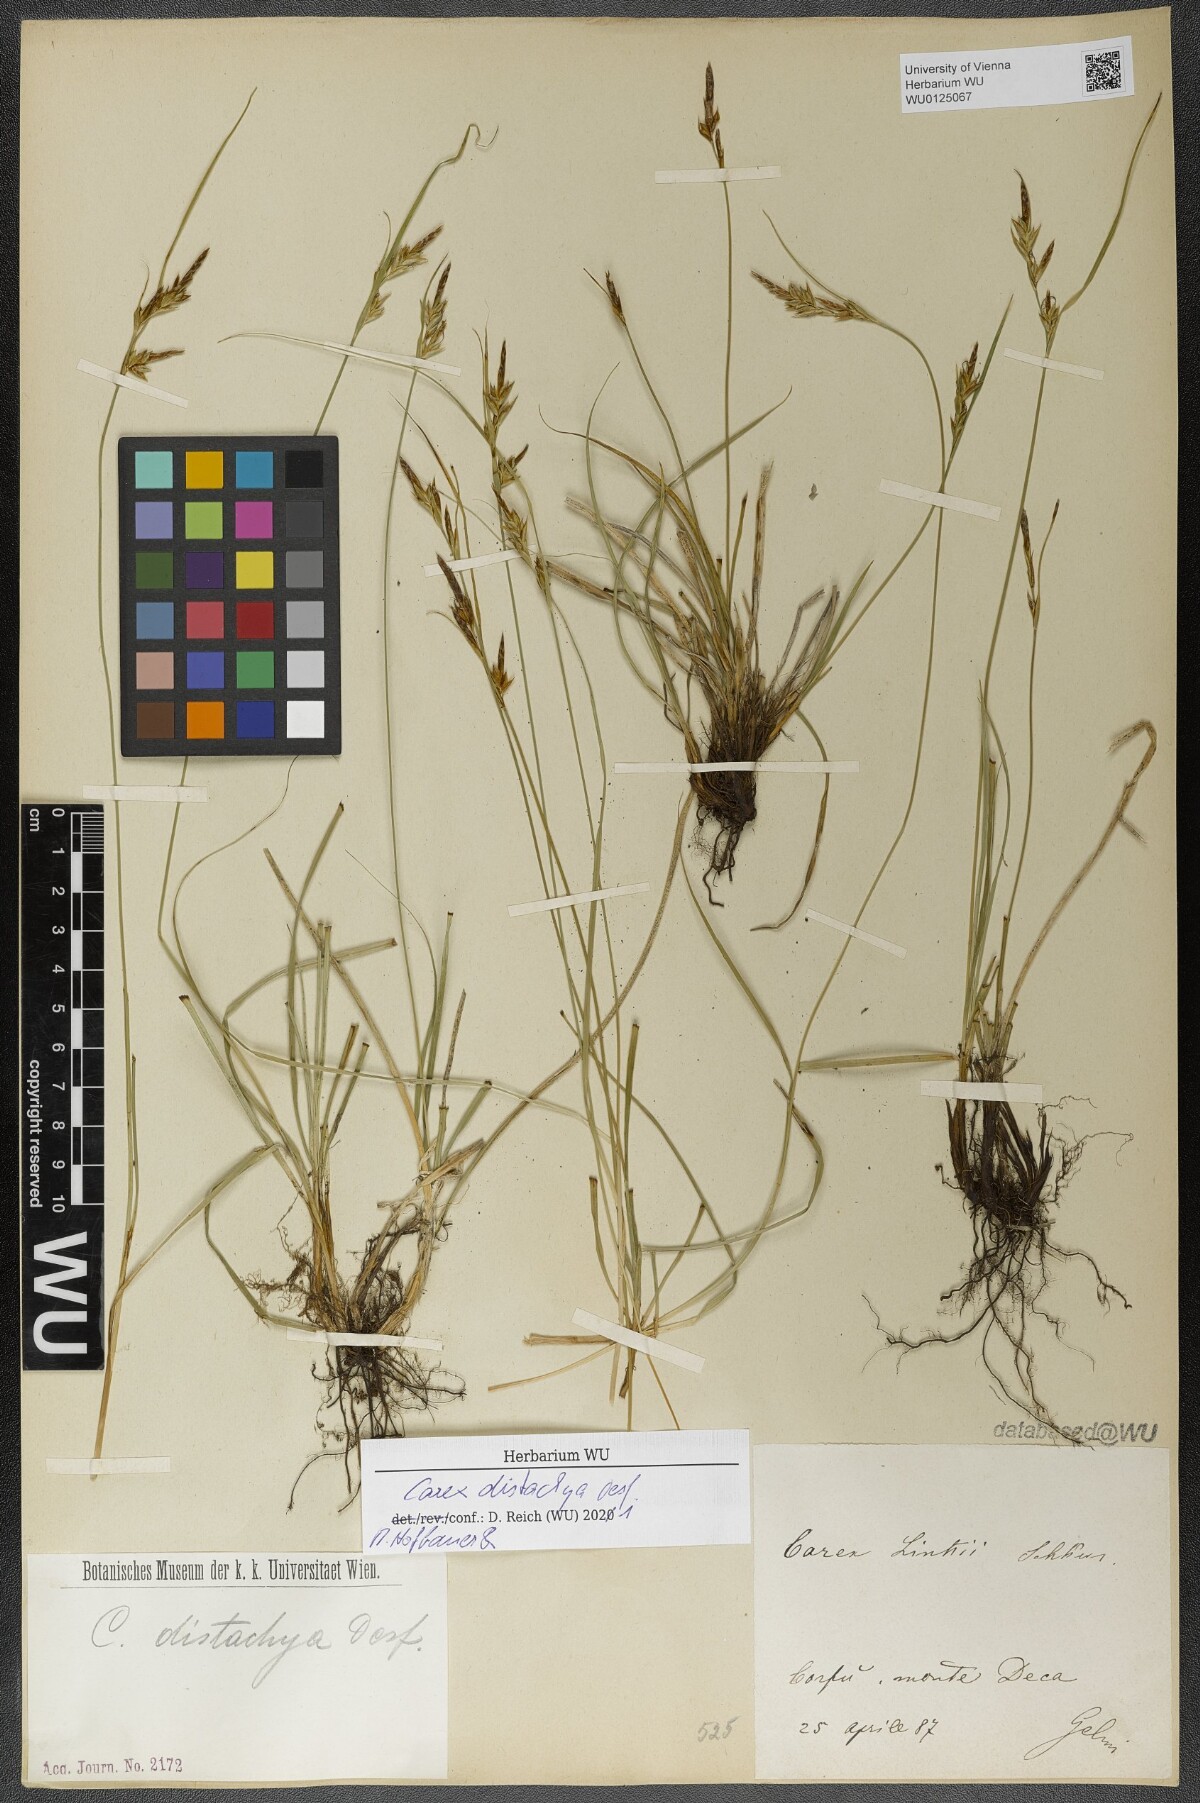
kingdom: Plantae
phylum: Tracheophyta
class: Liliopsida
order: Poales
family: Cyperaceae
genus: Carex
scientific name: Carex distachya
